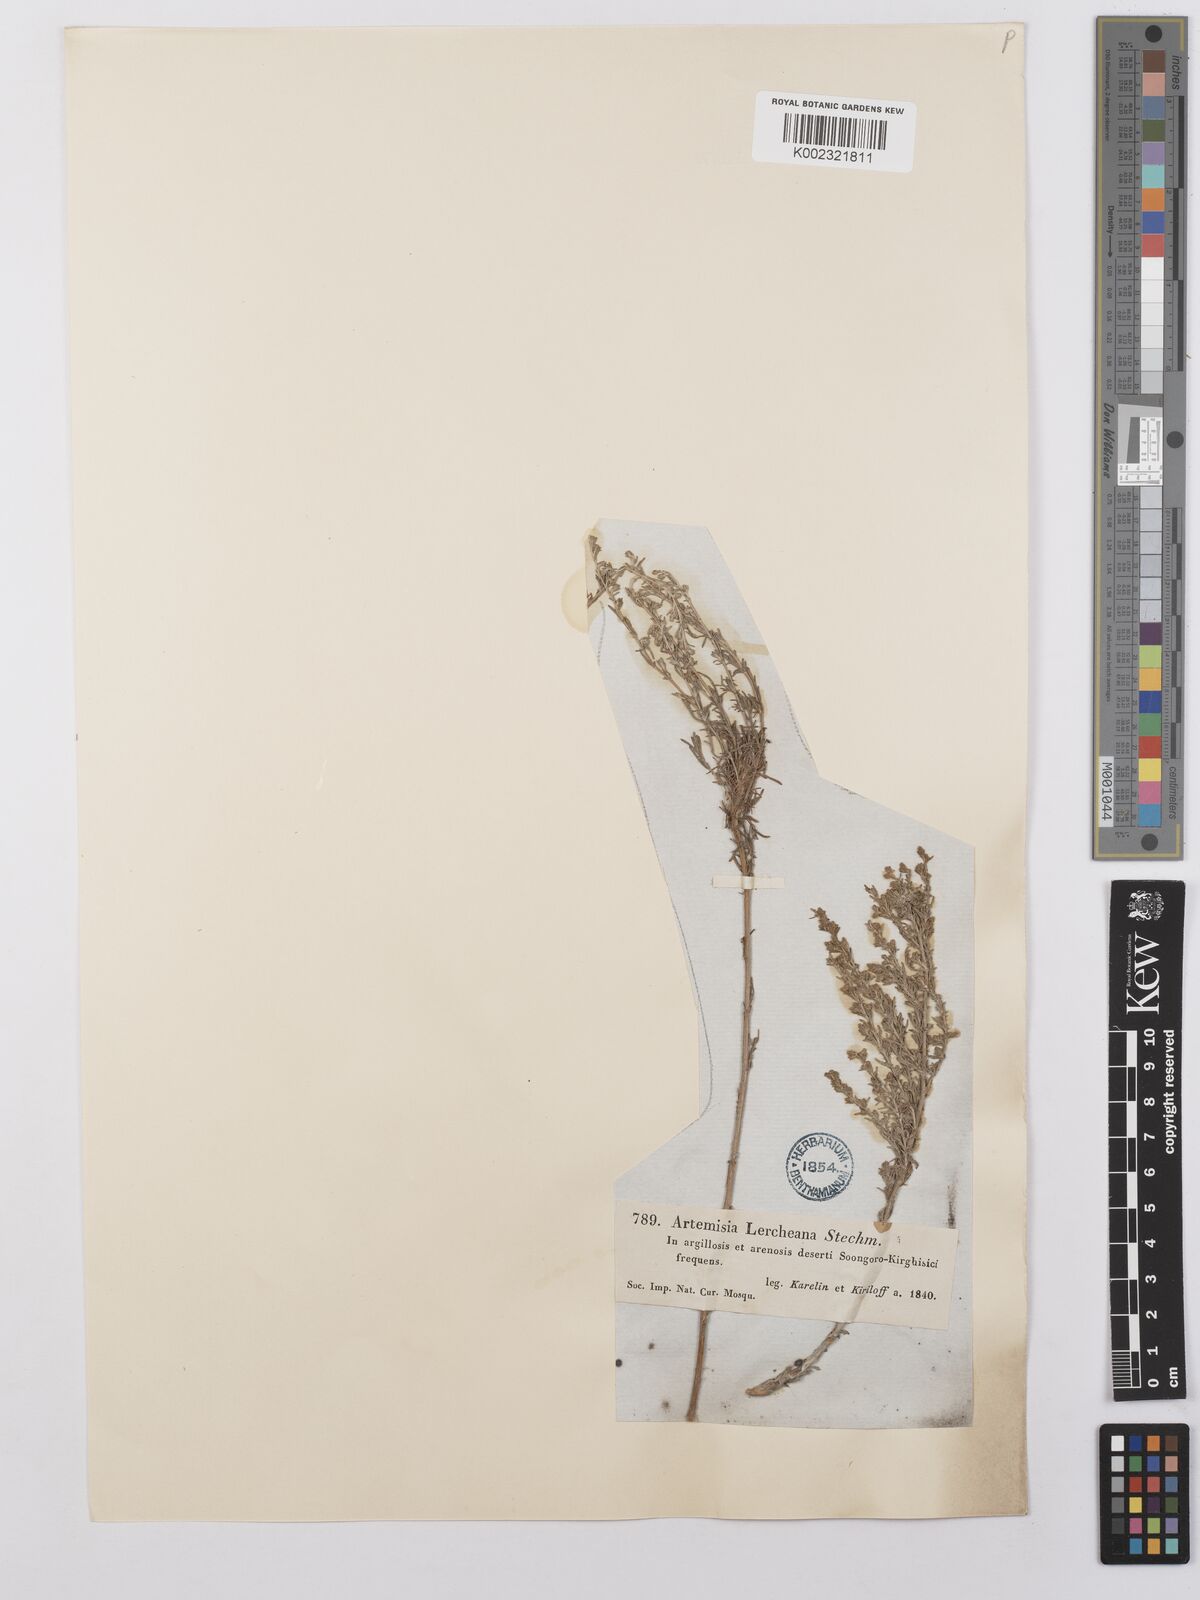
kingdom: Plantae
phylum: Tracheophyta
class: Magnoliopsida
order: Asterales
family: Asteraceae
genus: Artemisia
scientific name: Artemisia lercheana
